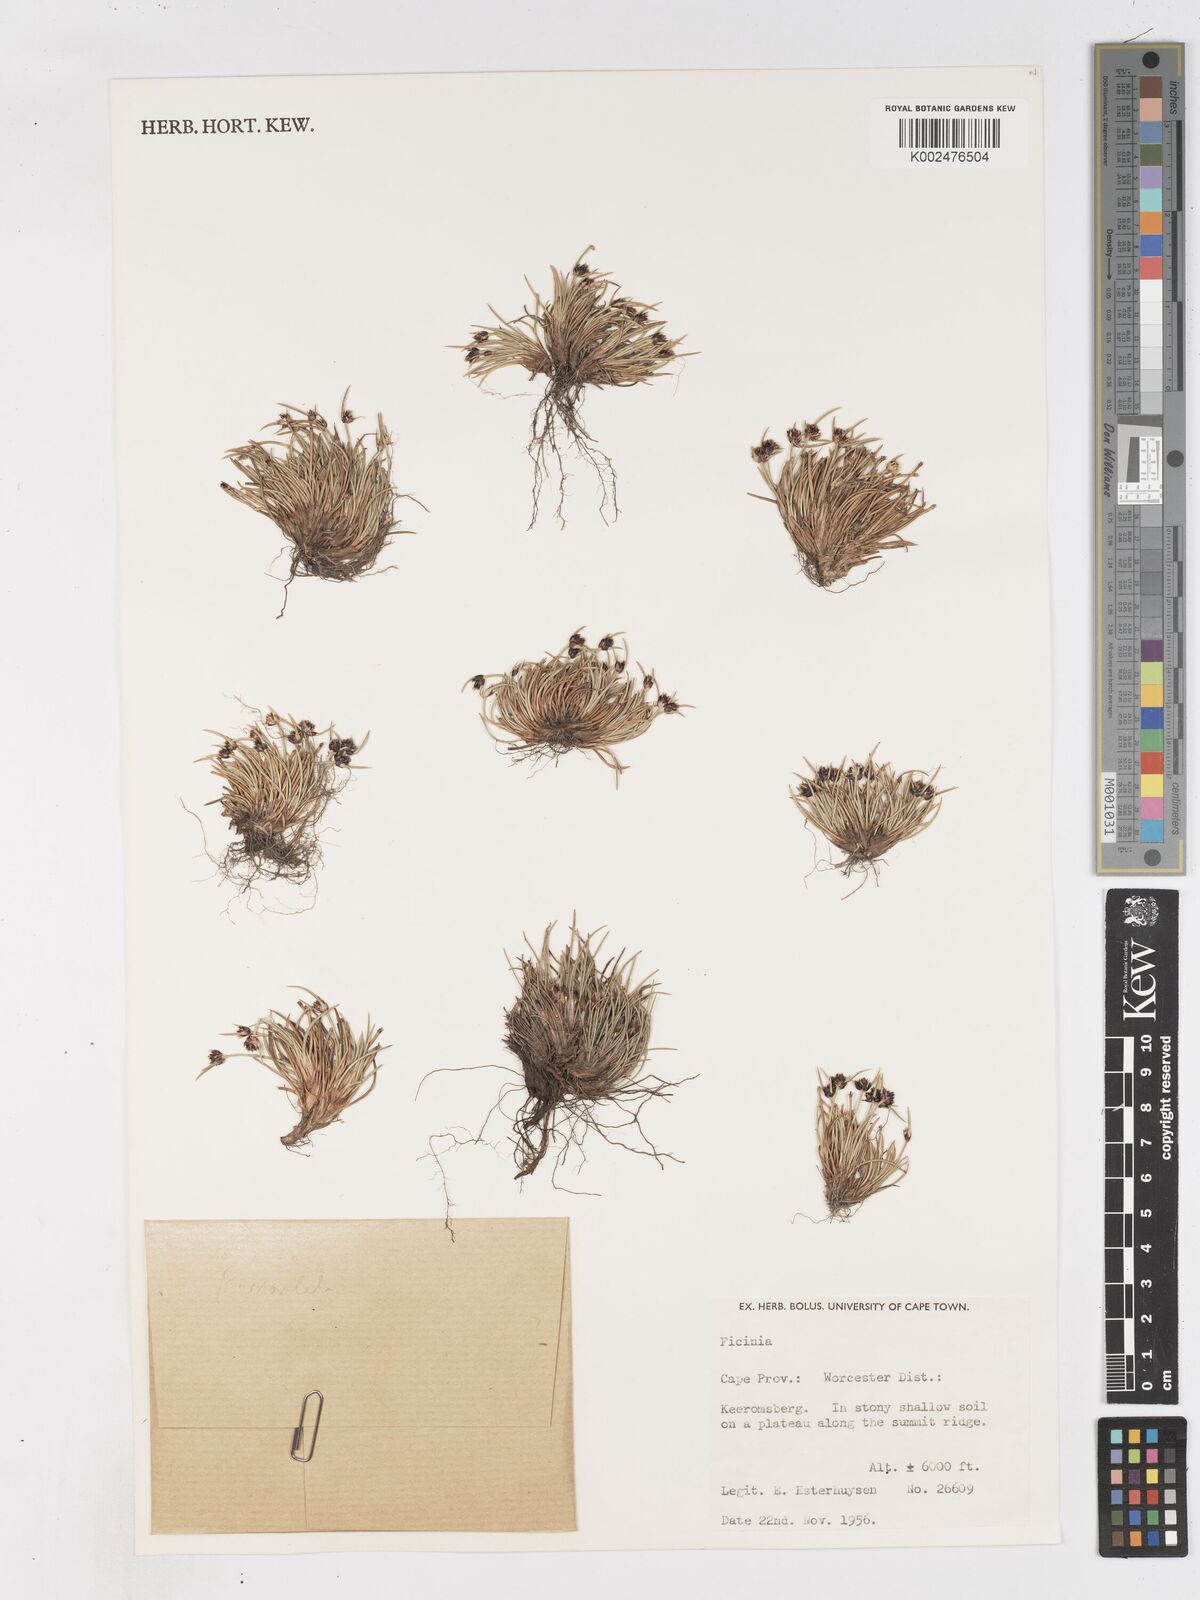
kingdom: Plantae
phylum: Tracheophyta
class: Liliopsida
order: Poales
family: Cyperaceae
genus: Ficinia
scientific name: Ficinia
